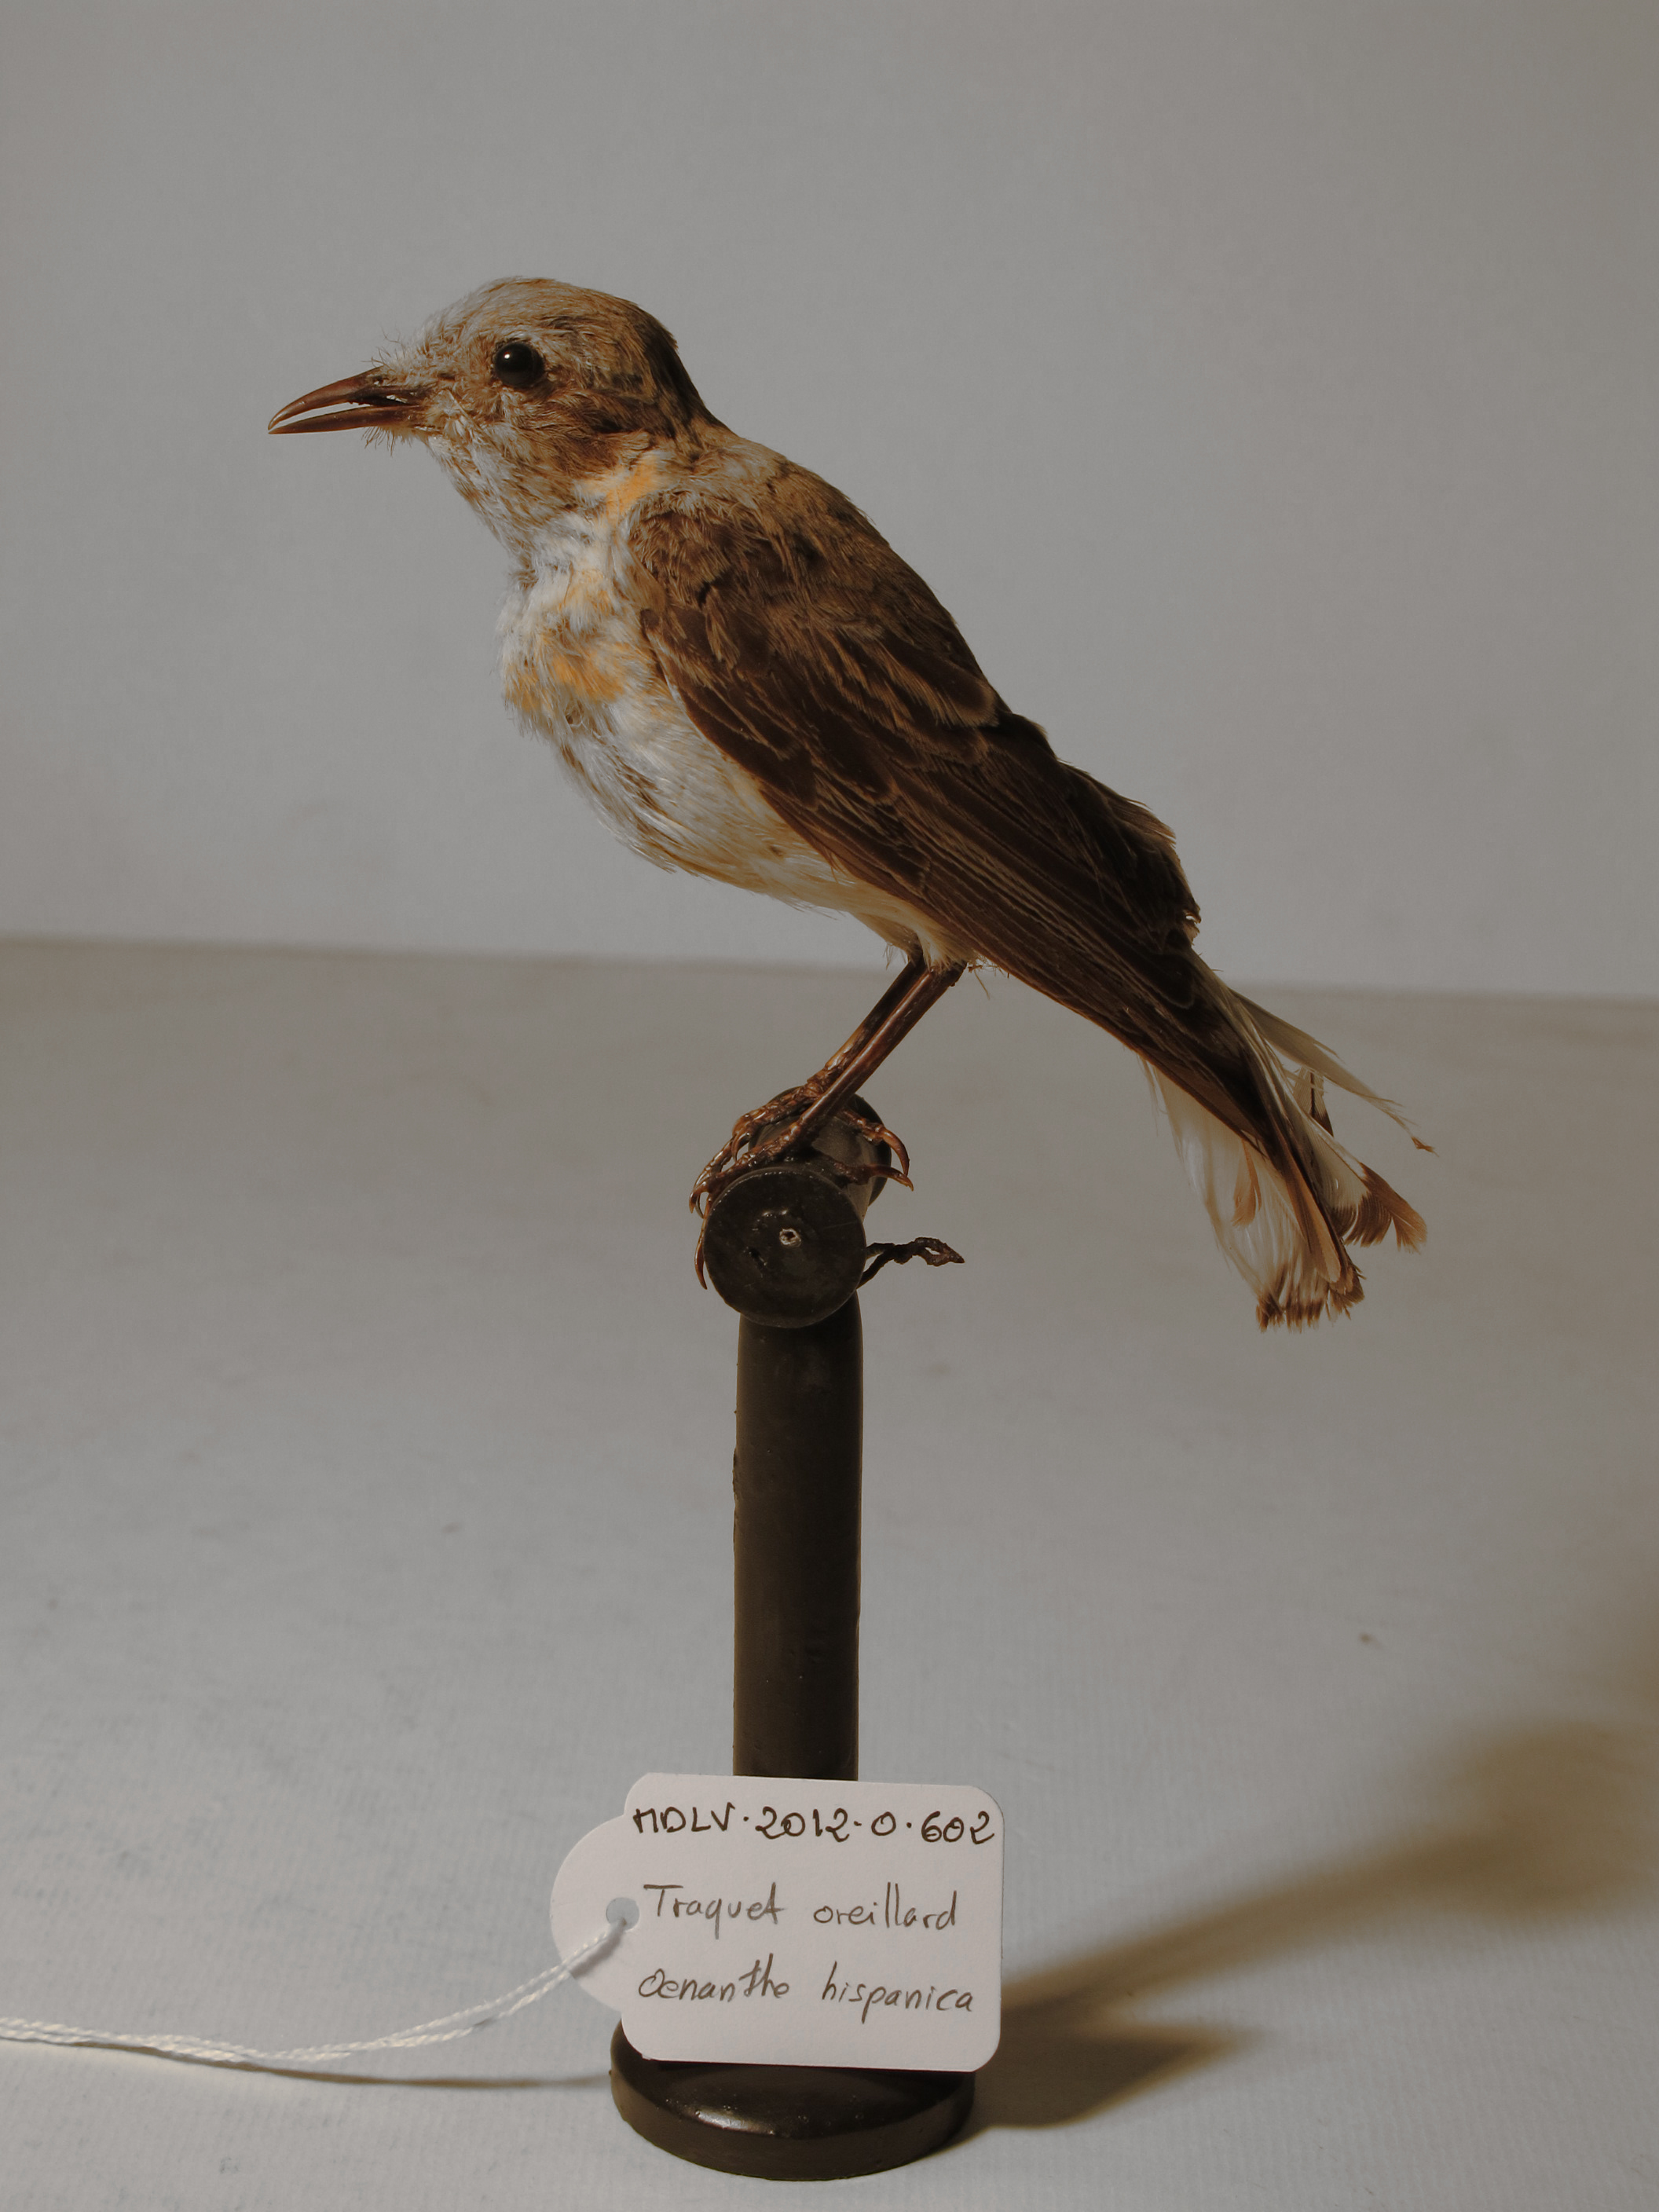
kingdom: Animalia
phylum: Chordata
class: Aves
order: Passeriformes
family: Muscicapidae
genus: Oenanthe
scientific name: Oenanthe hispanica
